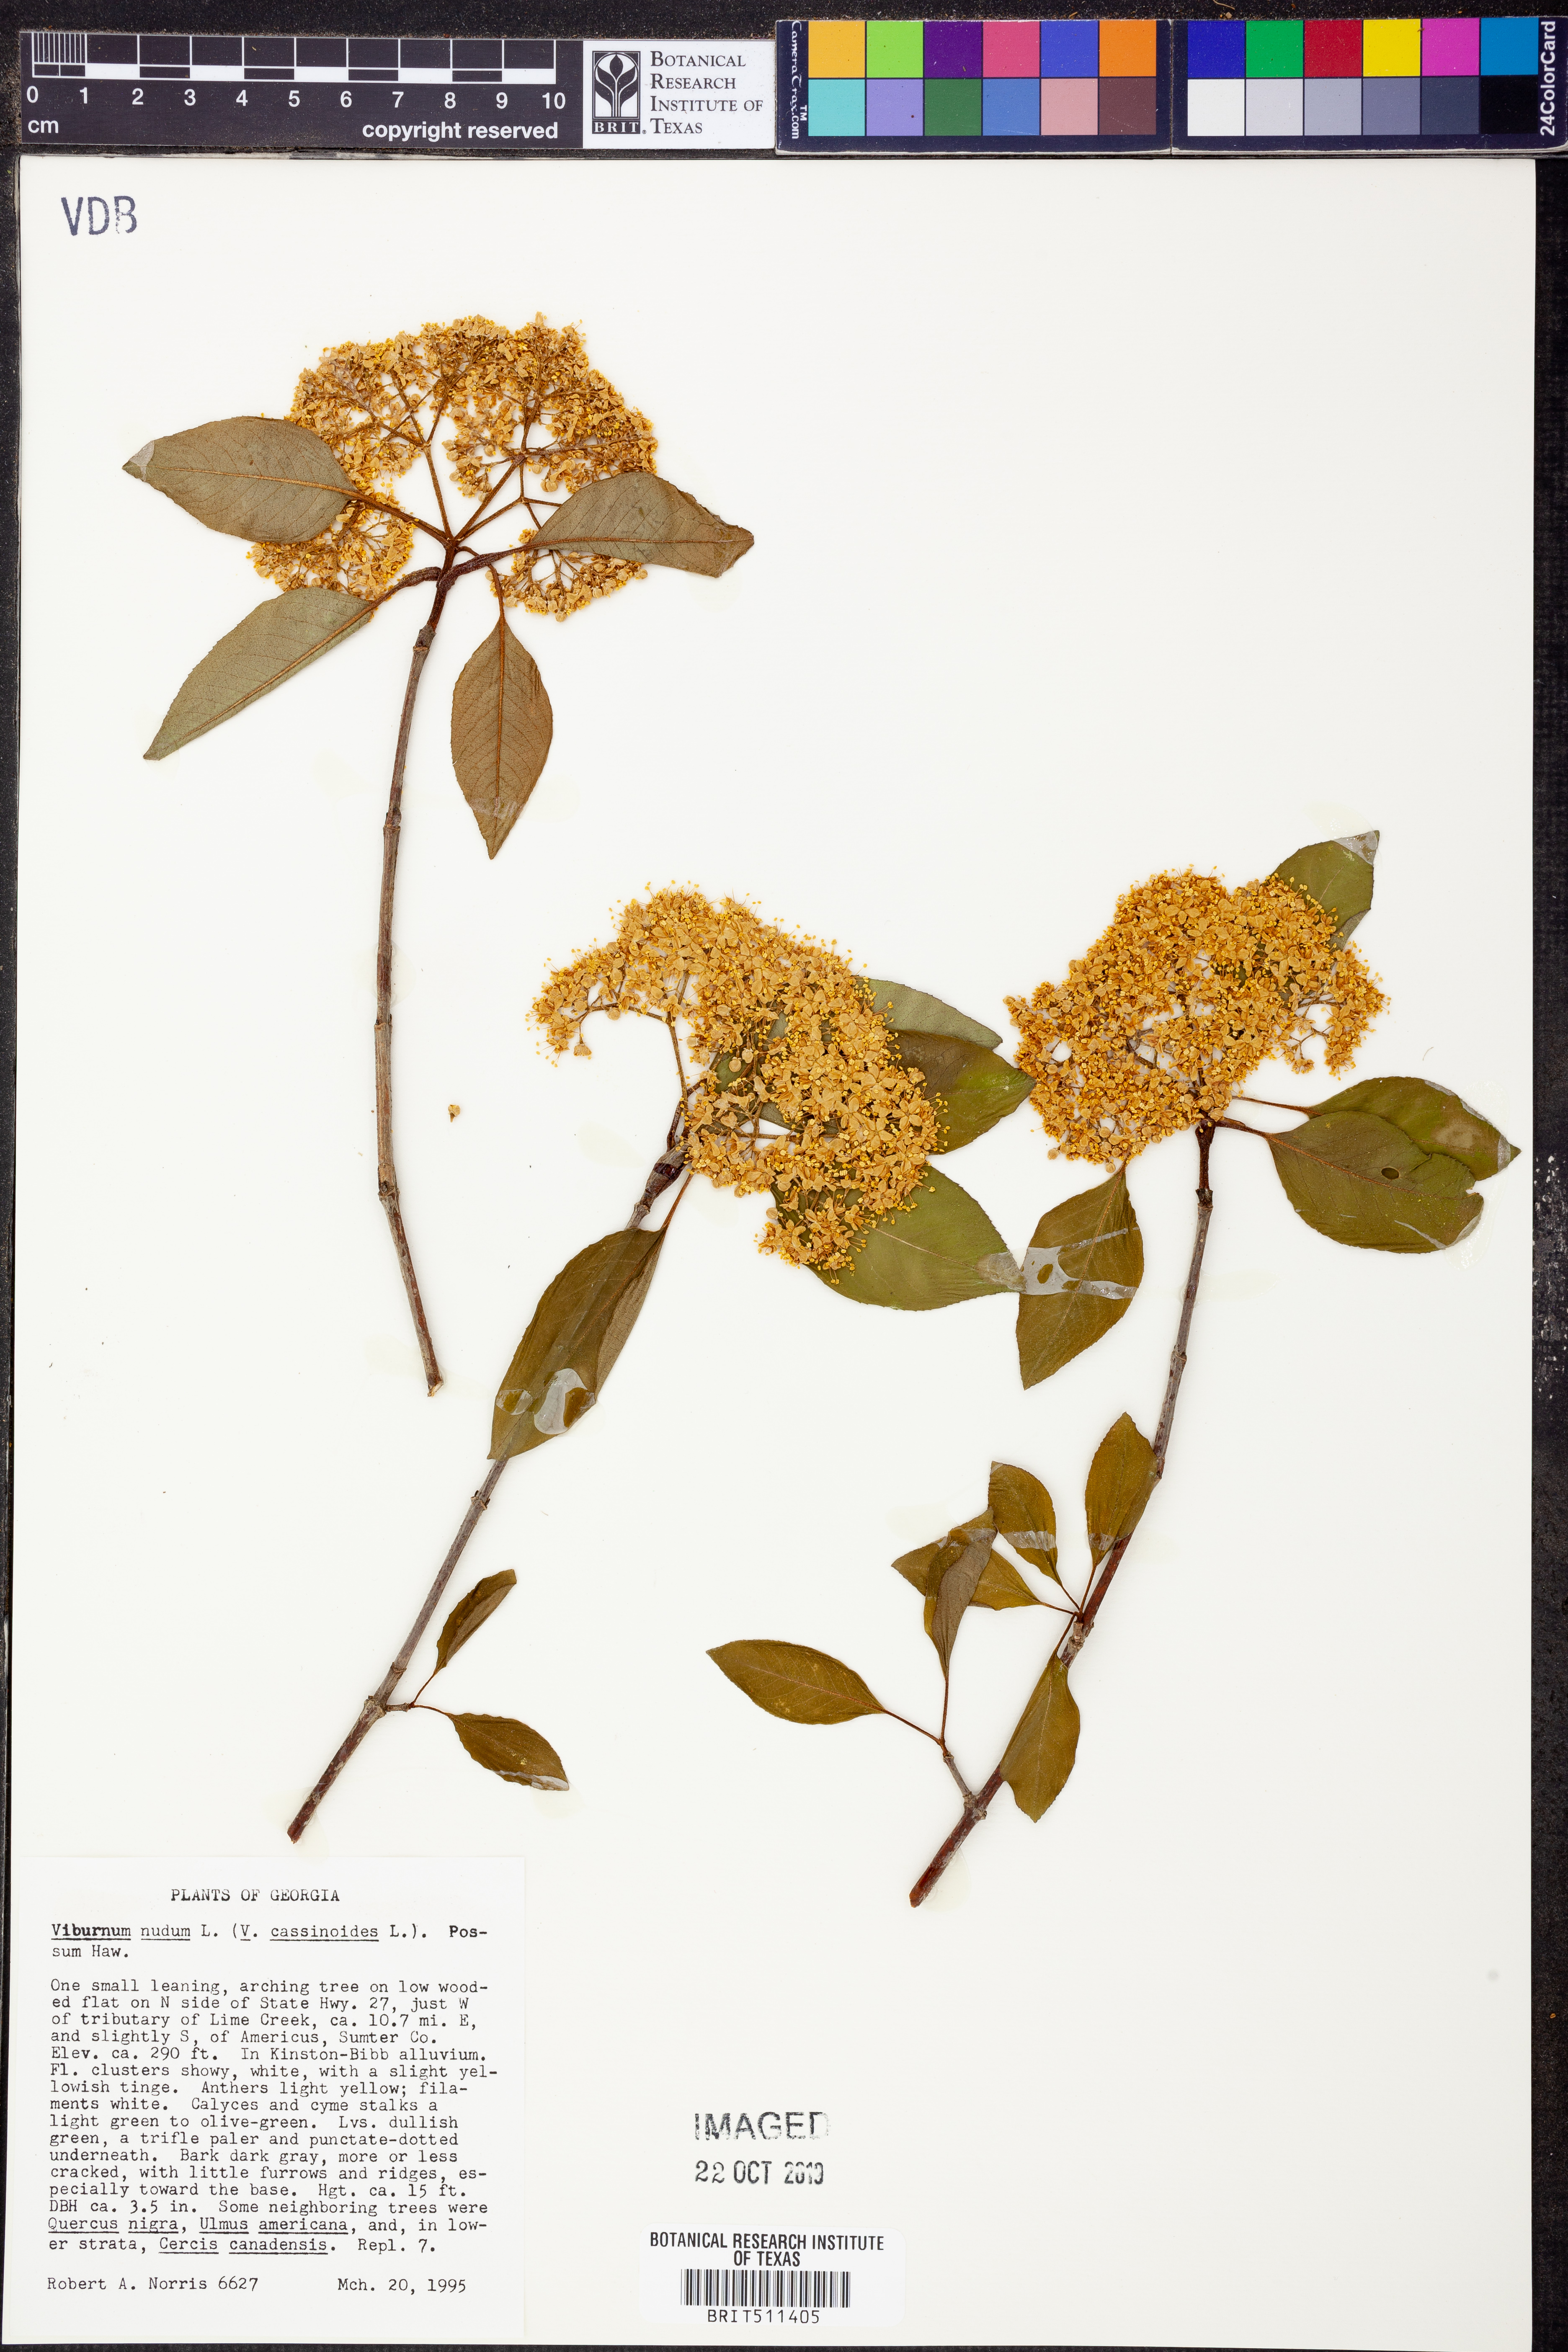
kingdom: Plantae
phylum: Tracheophyta
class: Magnoliopsida
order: Dipsacales
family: Viburnaceae
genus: Viburnum
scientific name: Viburnum nudum
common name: Possum haw
